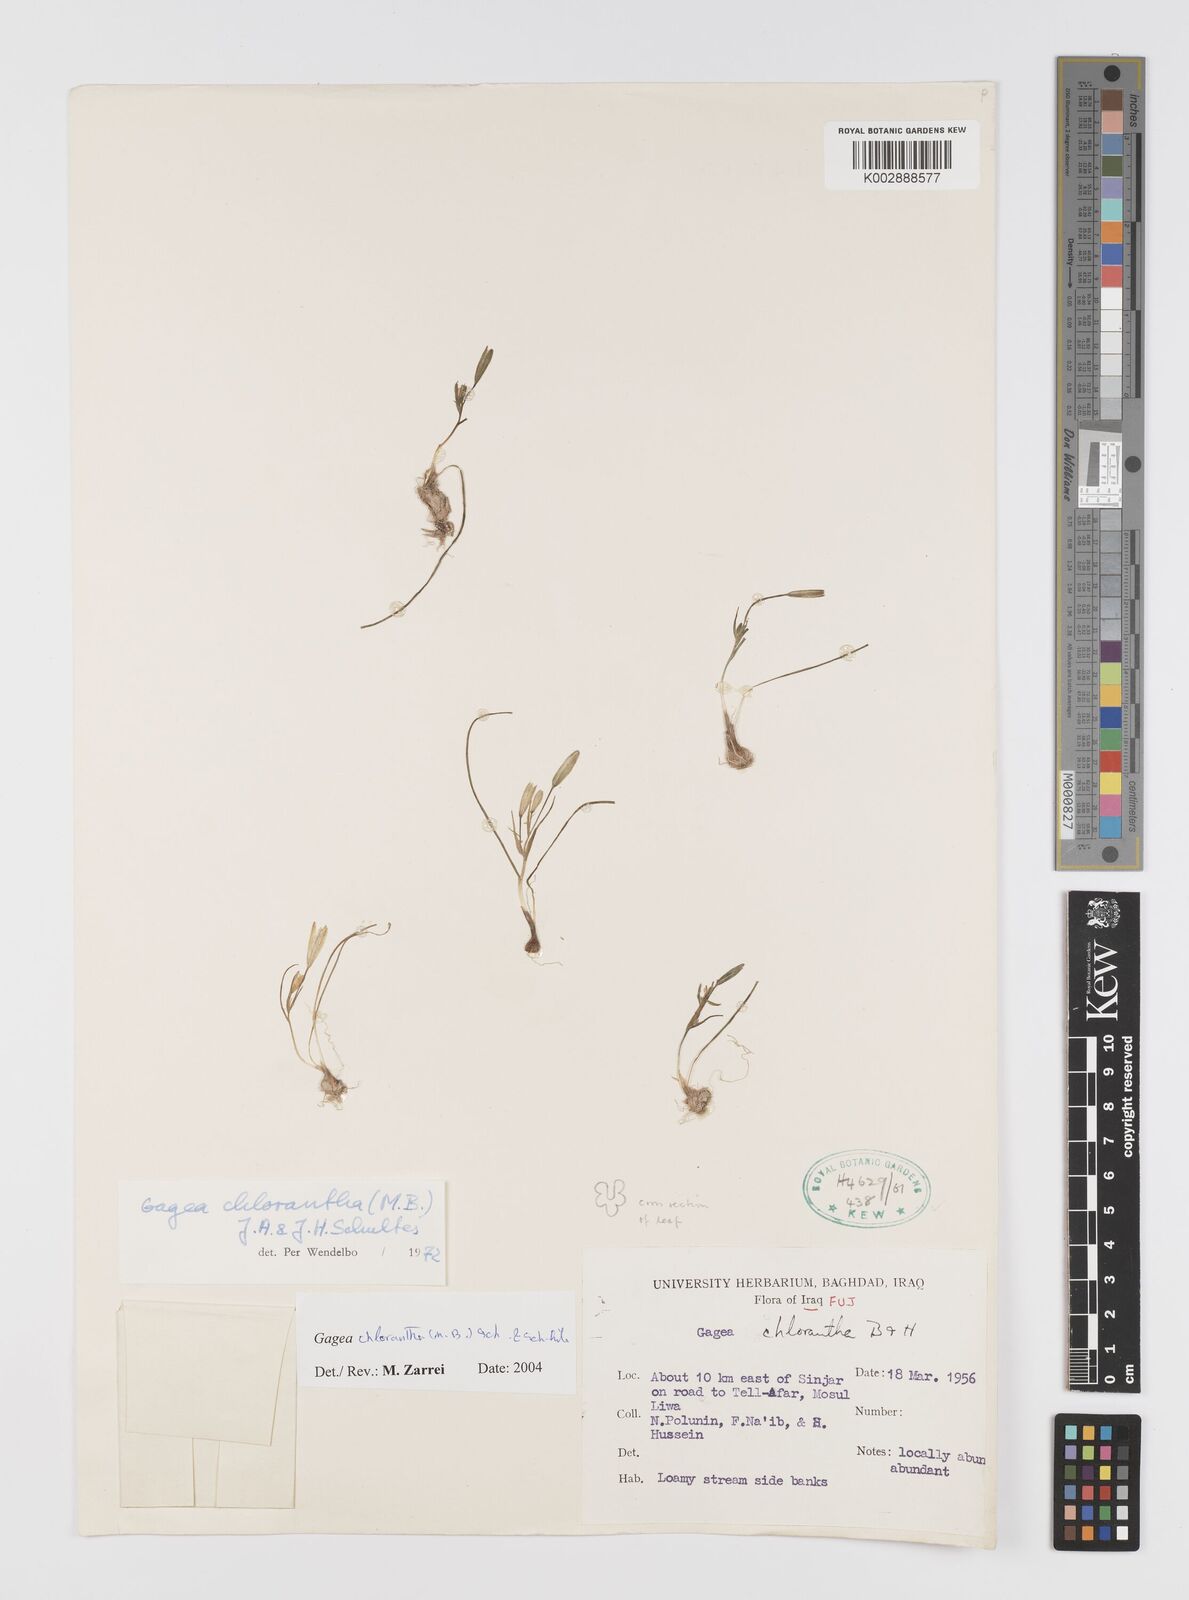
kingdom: Plantae
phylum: Tracheophyta
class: Liliopsida
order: Liliales
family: Liliaceae
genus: Gagea
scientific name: Gagea chlorantha
